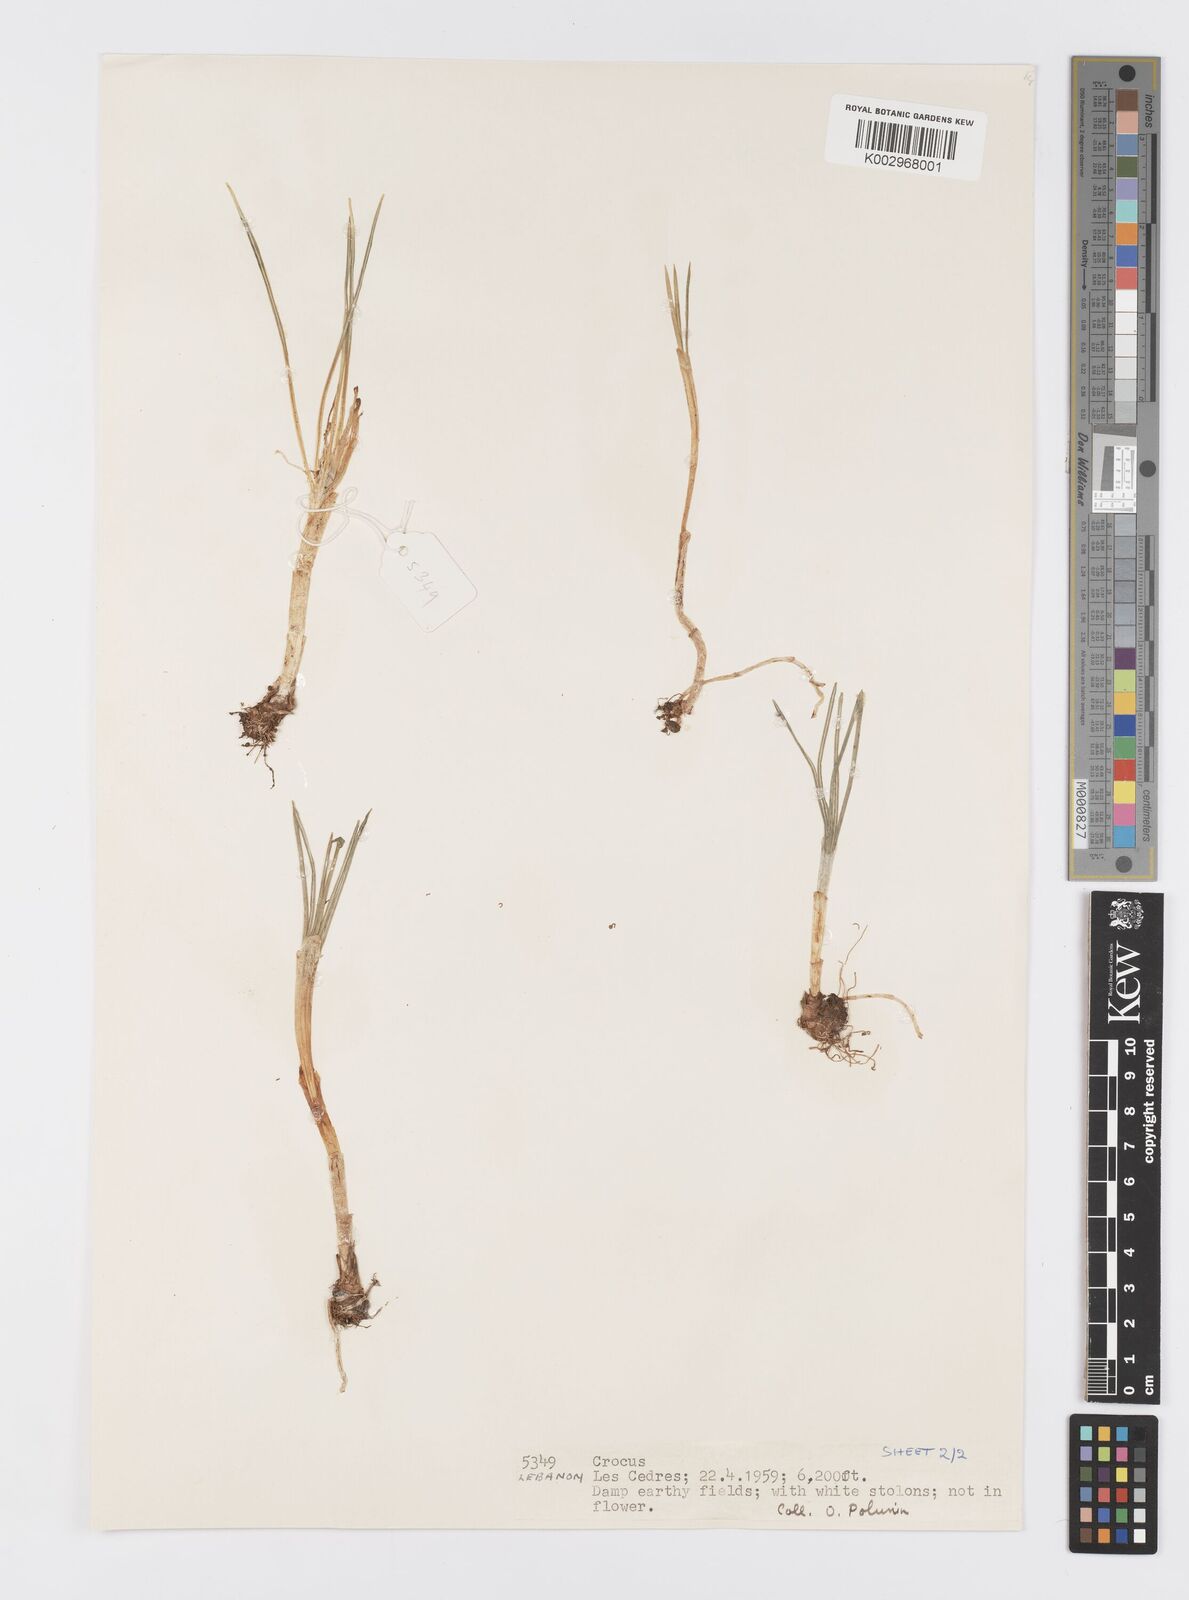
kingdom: Plantae
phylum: Tracheophyta
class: Liliopsida
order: Asparagales
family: Iridaceae
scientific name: Iridaceae
